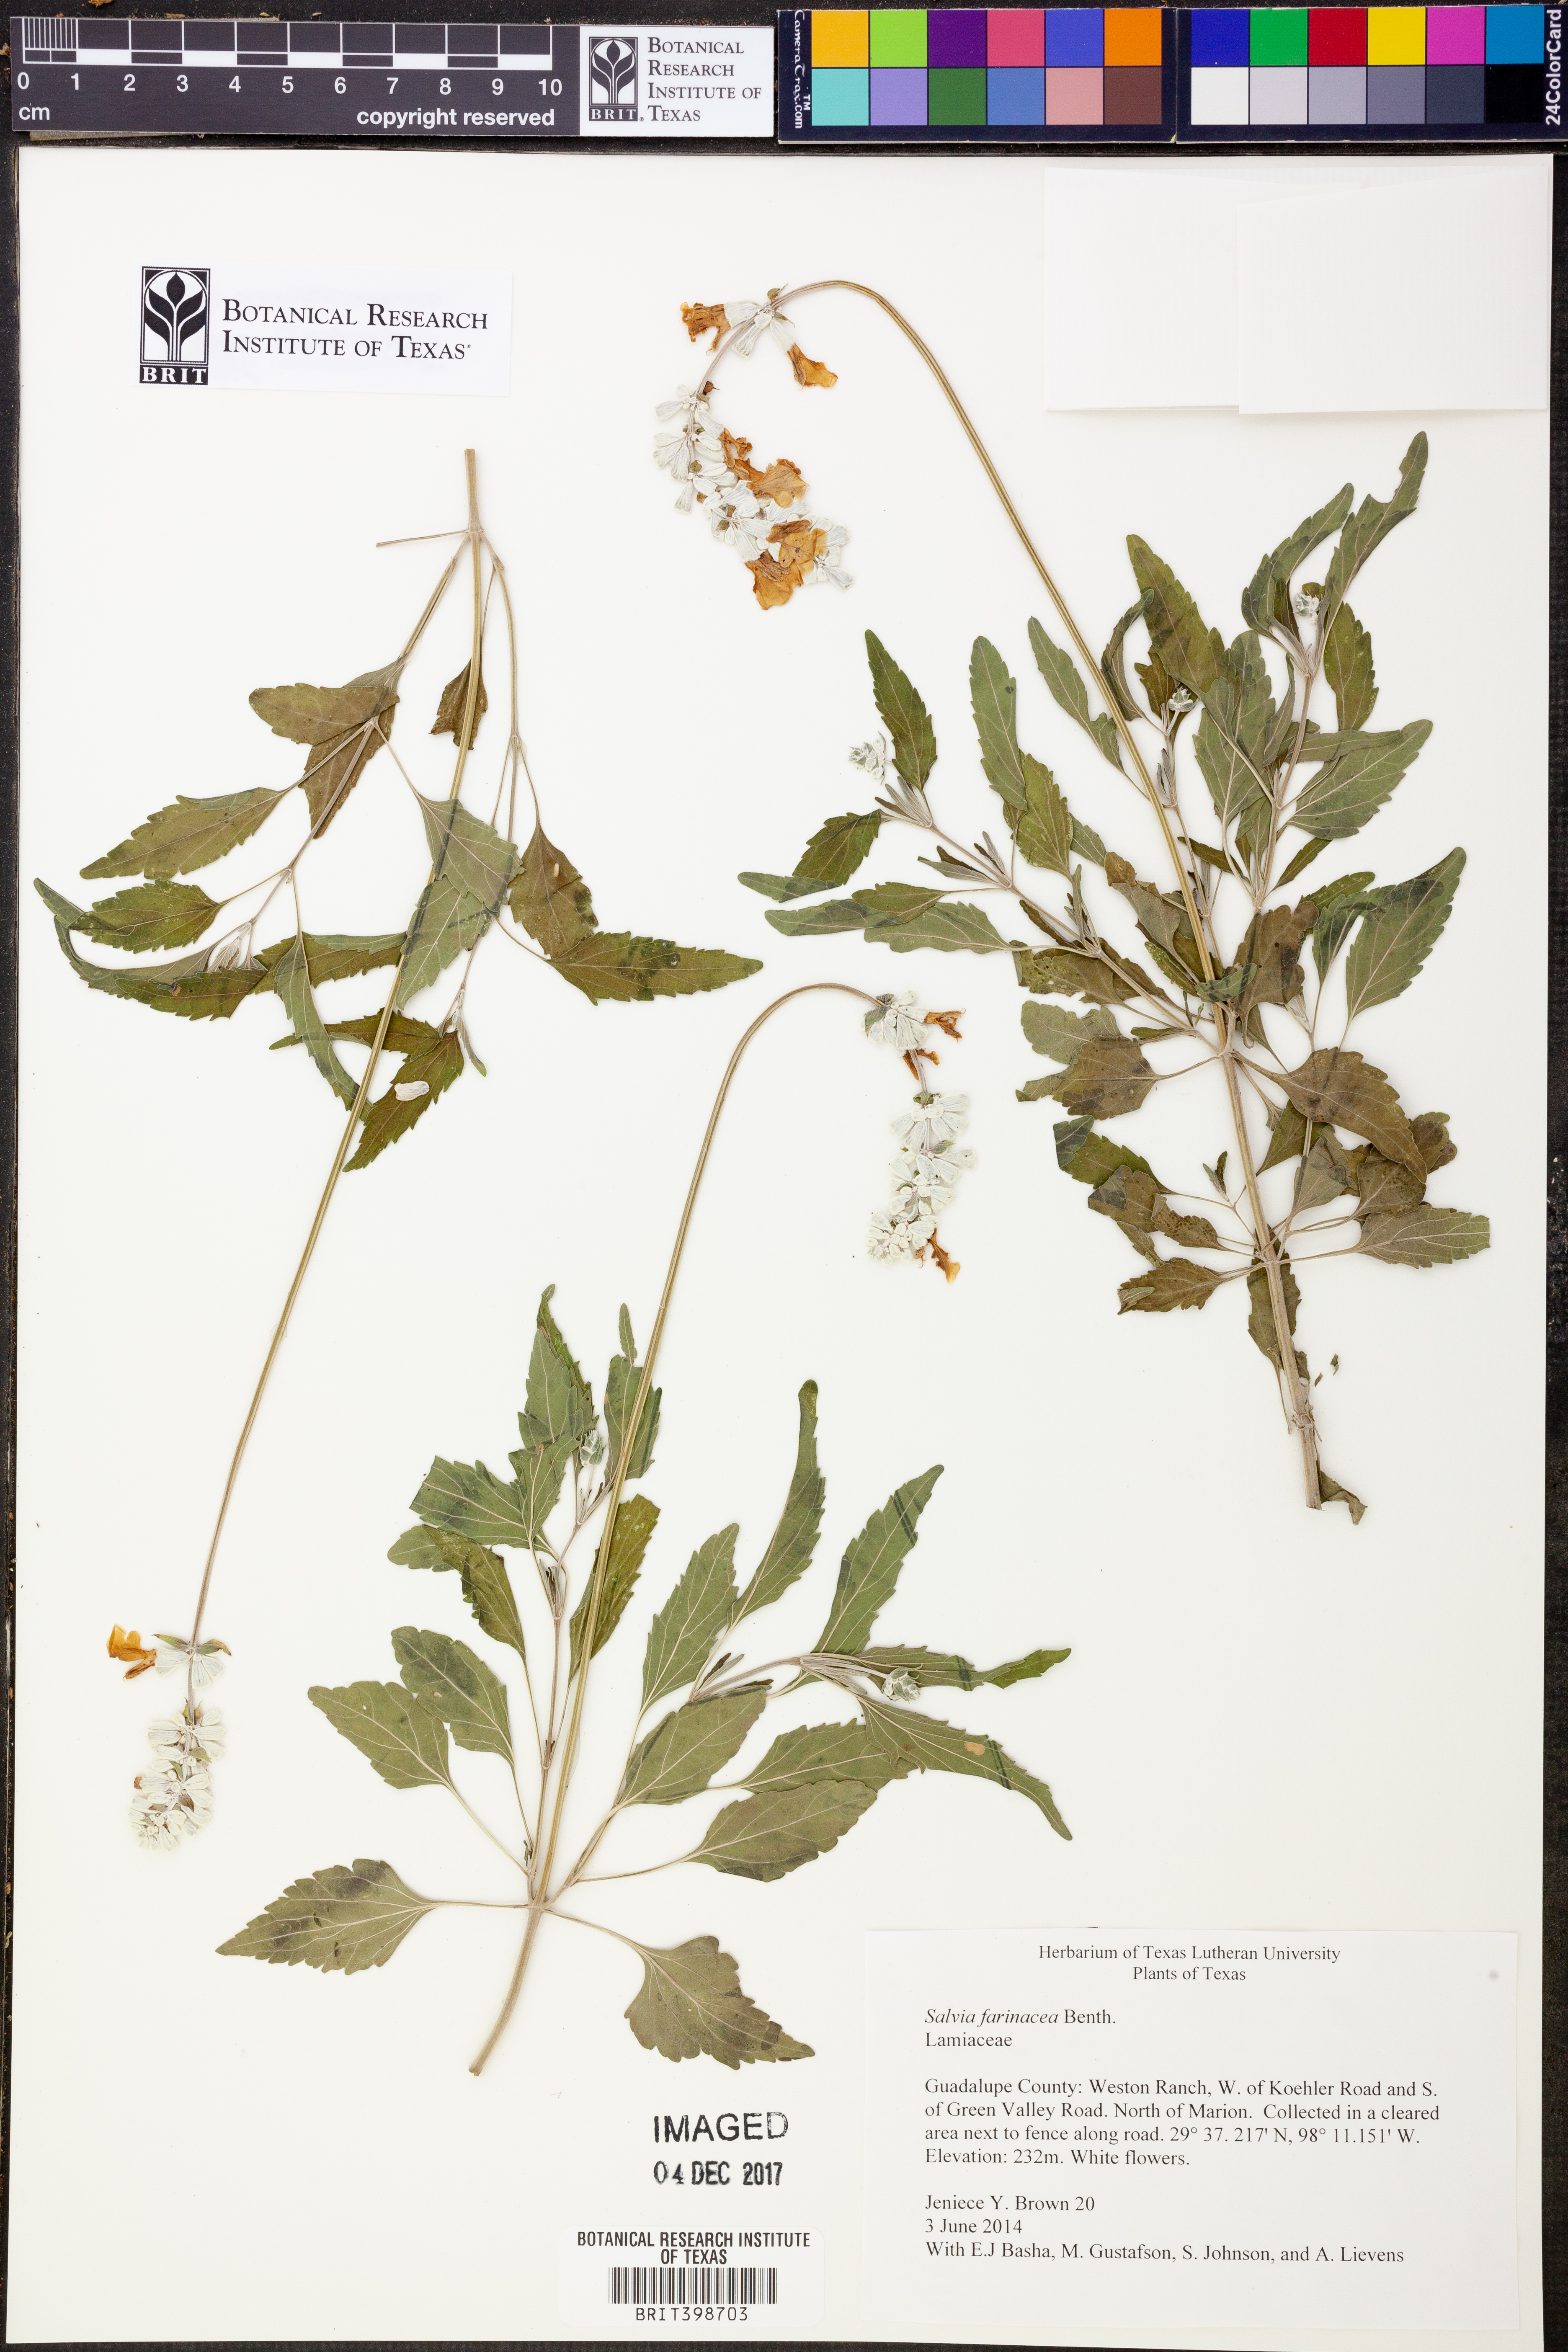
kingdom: Plantae
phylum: Tracheophyta
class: Magnoliopsida
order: Lamiales
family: Lamiaceae
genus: Salvia
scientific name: Salvia farinacea
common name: Mealy sage
